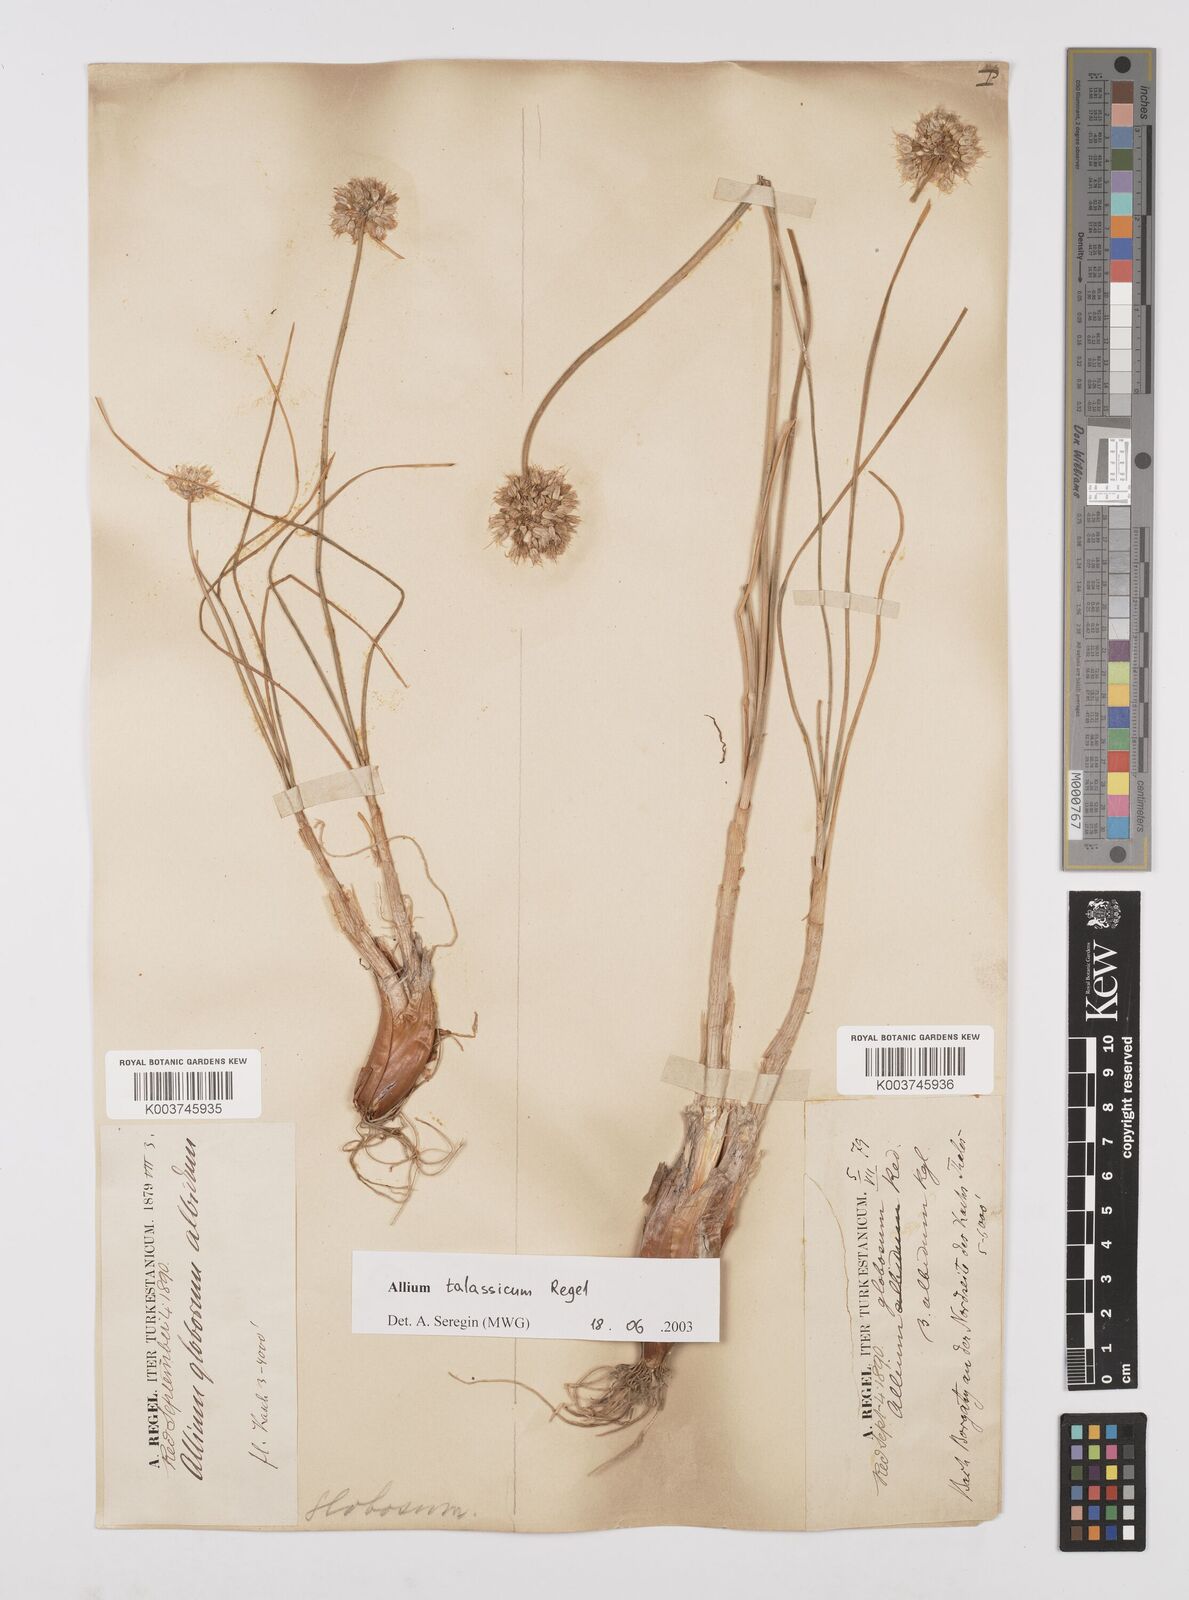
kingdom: Plantae
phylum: Tracheophyta
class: Liliopsida
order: Asparagales
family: Amaryllidaceae
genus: Allium
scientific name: Allium talassicum
